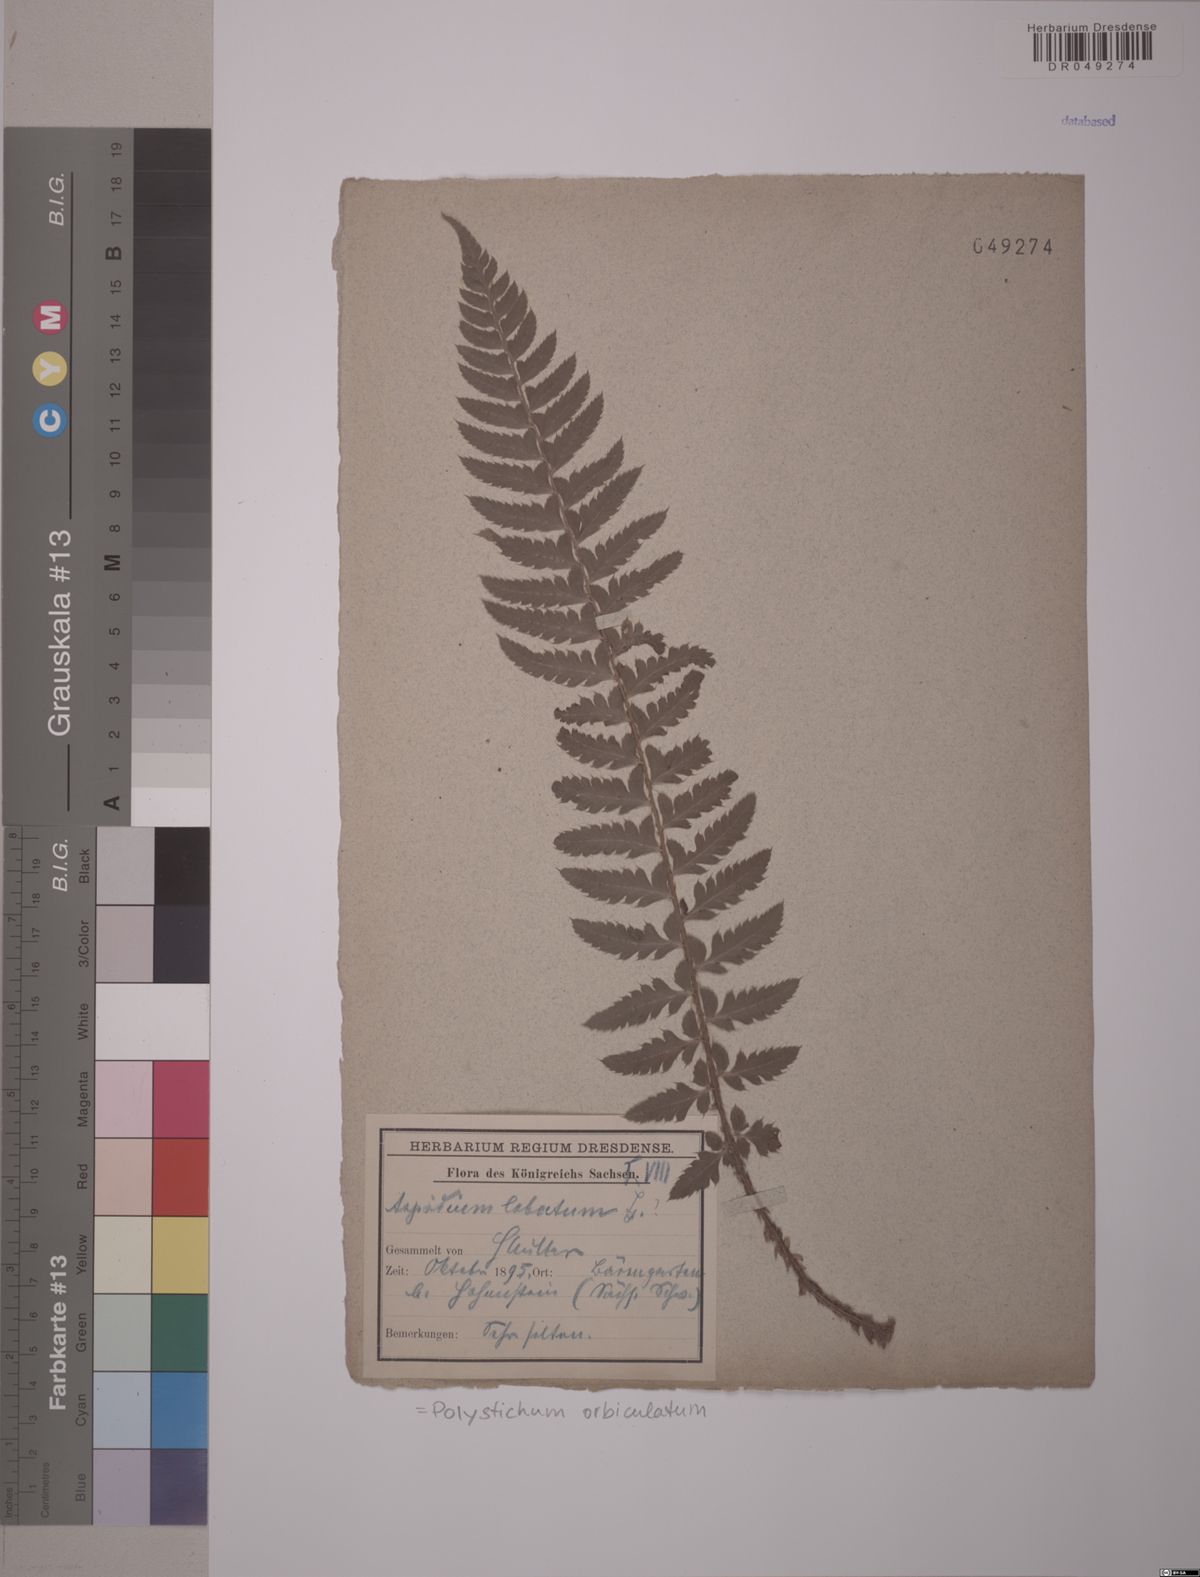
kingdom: Plantae
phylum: Tracheophyta
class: Polypodiopsida
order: Polypodiales
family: Dryopteridaceae
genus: Polystichum
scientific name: Polystichum aculeatum
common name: Hard shield-fern
